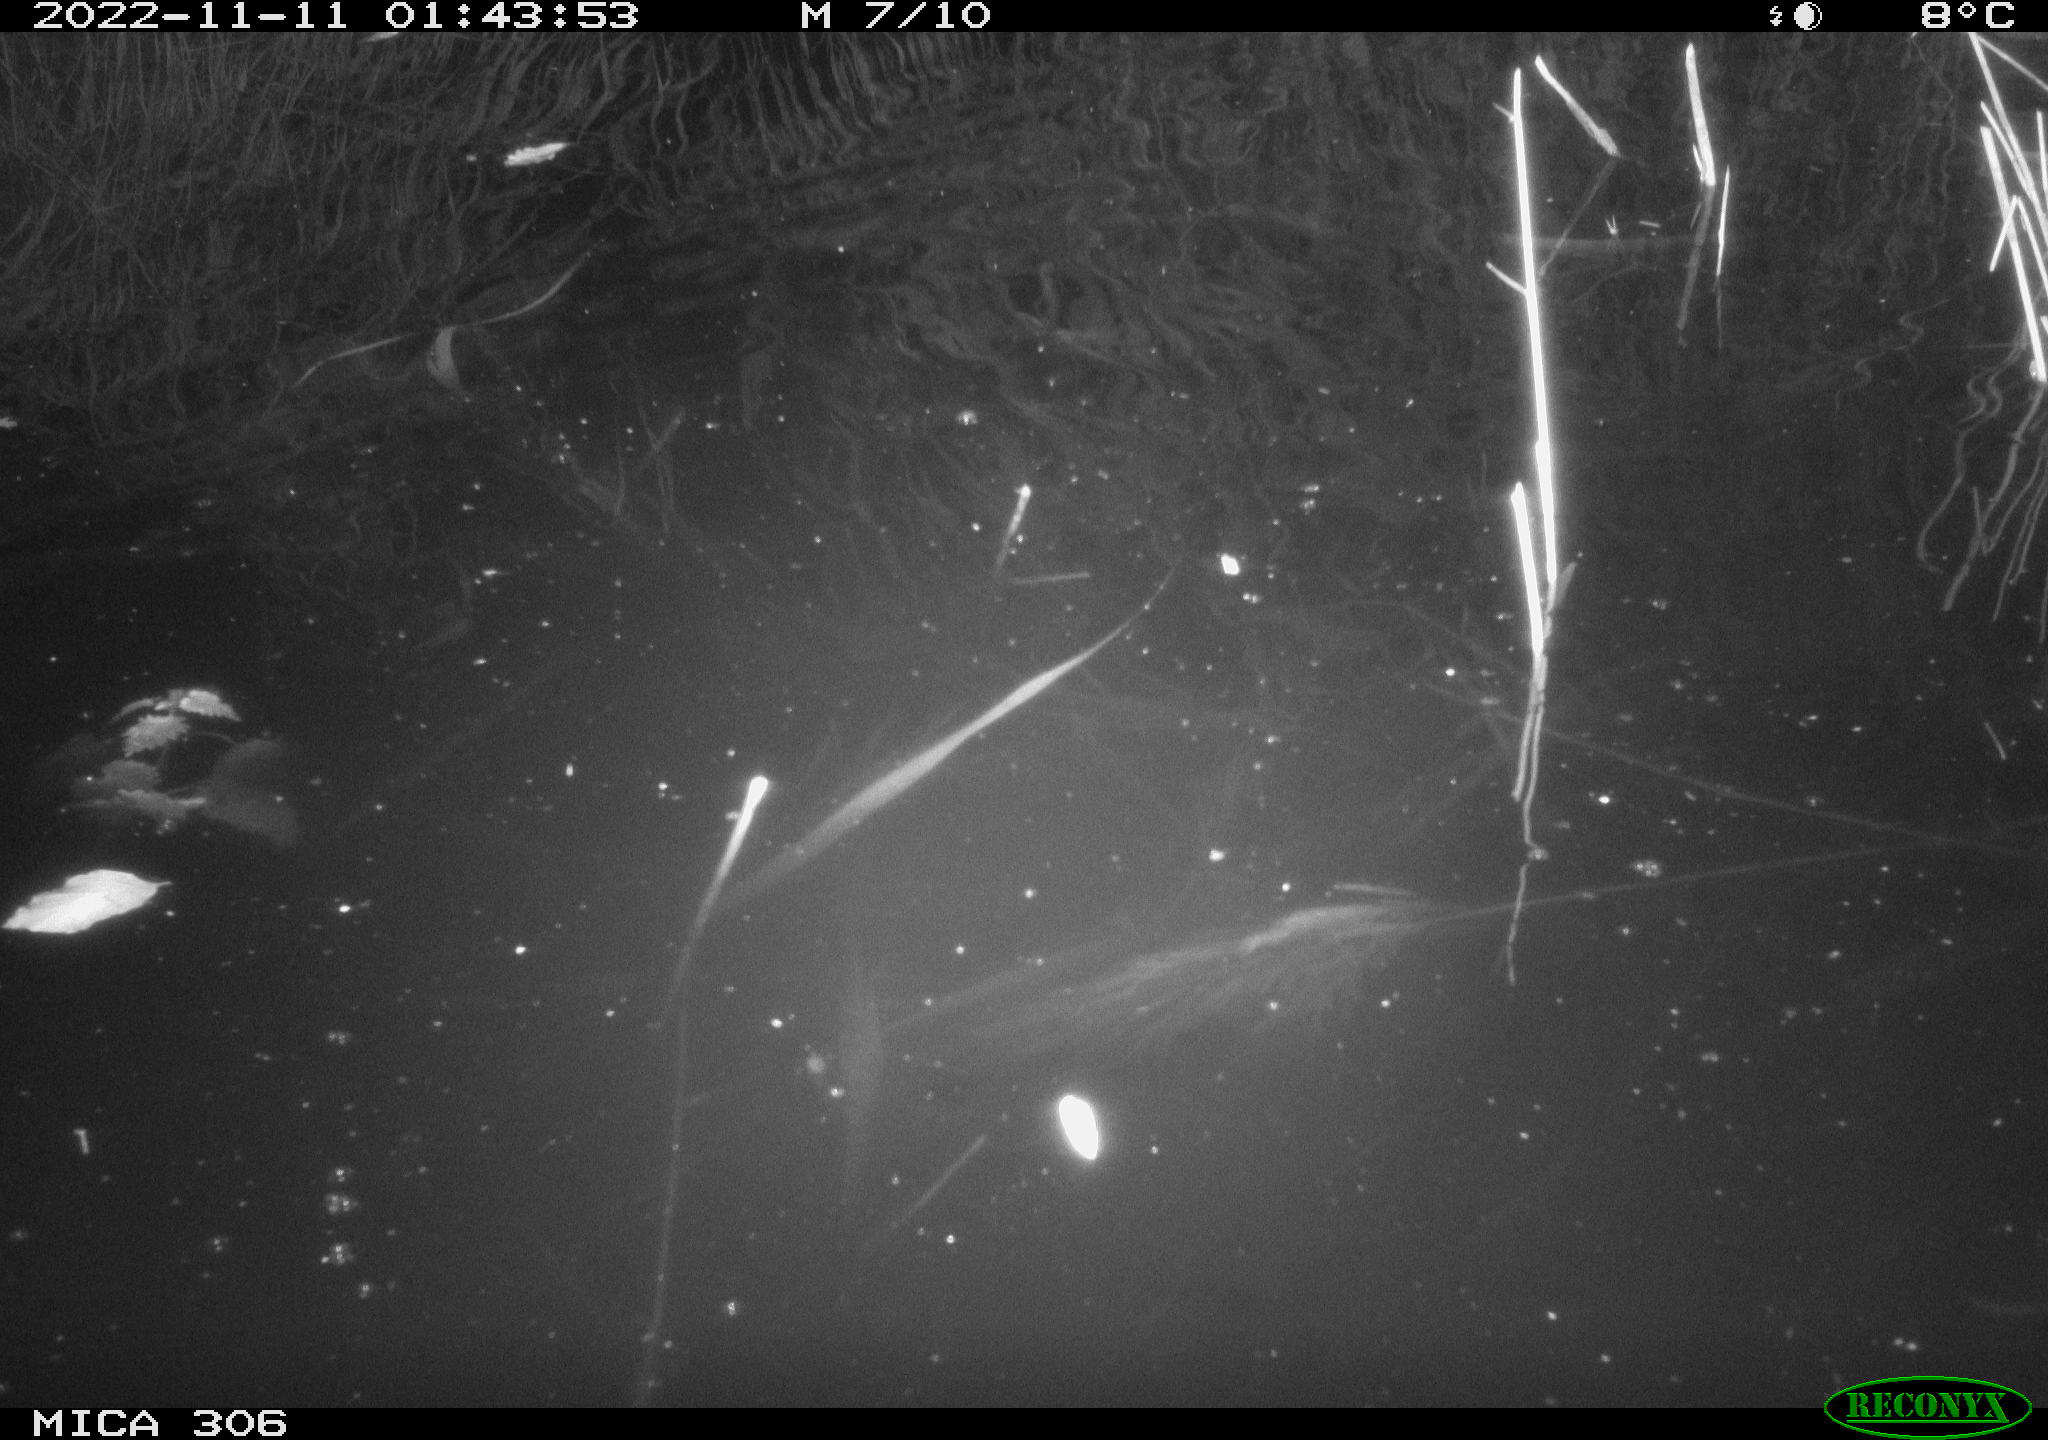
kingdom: Animalia
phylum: Chordata
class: Mammalia
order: Rodentia
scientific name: Rodentia
